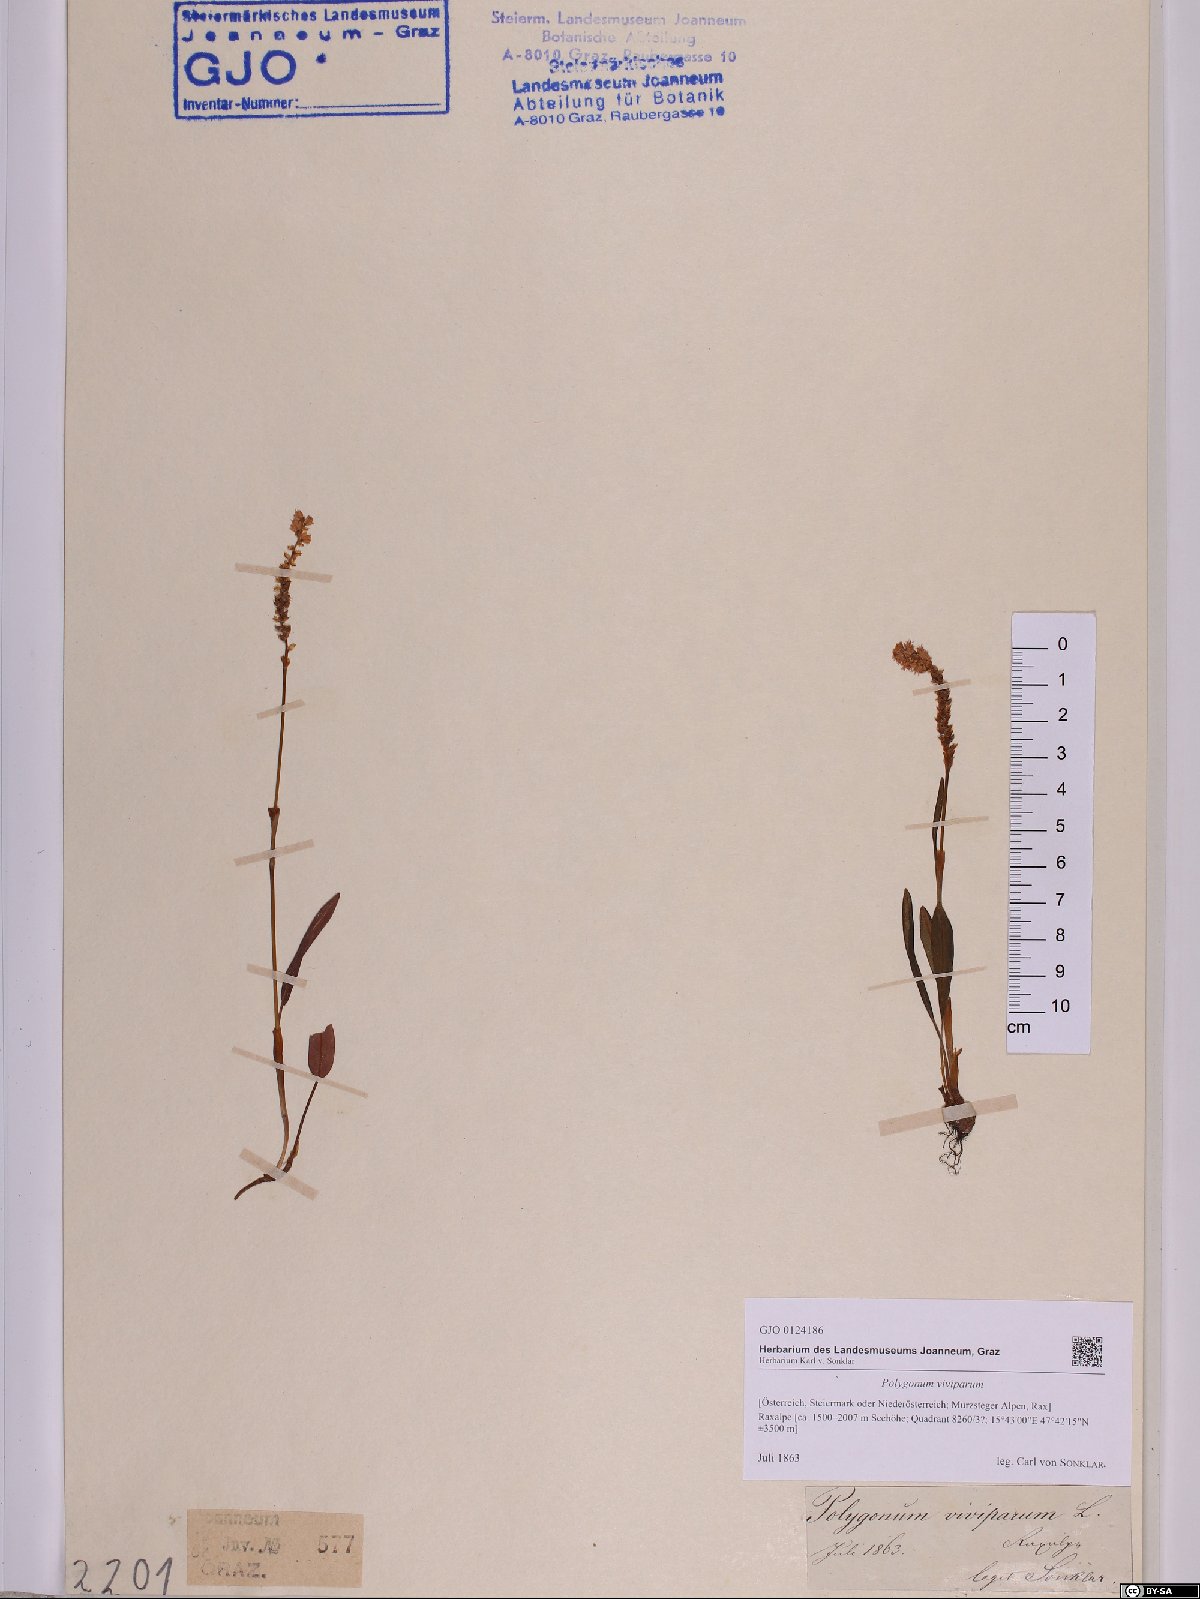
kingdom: Plantae
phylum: Tracheophyta
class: Magnoliopsida
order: Caryophyllales
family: Polygonaceae
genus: Bistorta
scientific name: Bistorta vivipara
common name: Alpine bistort
